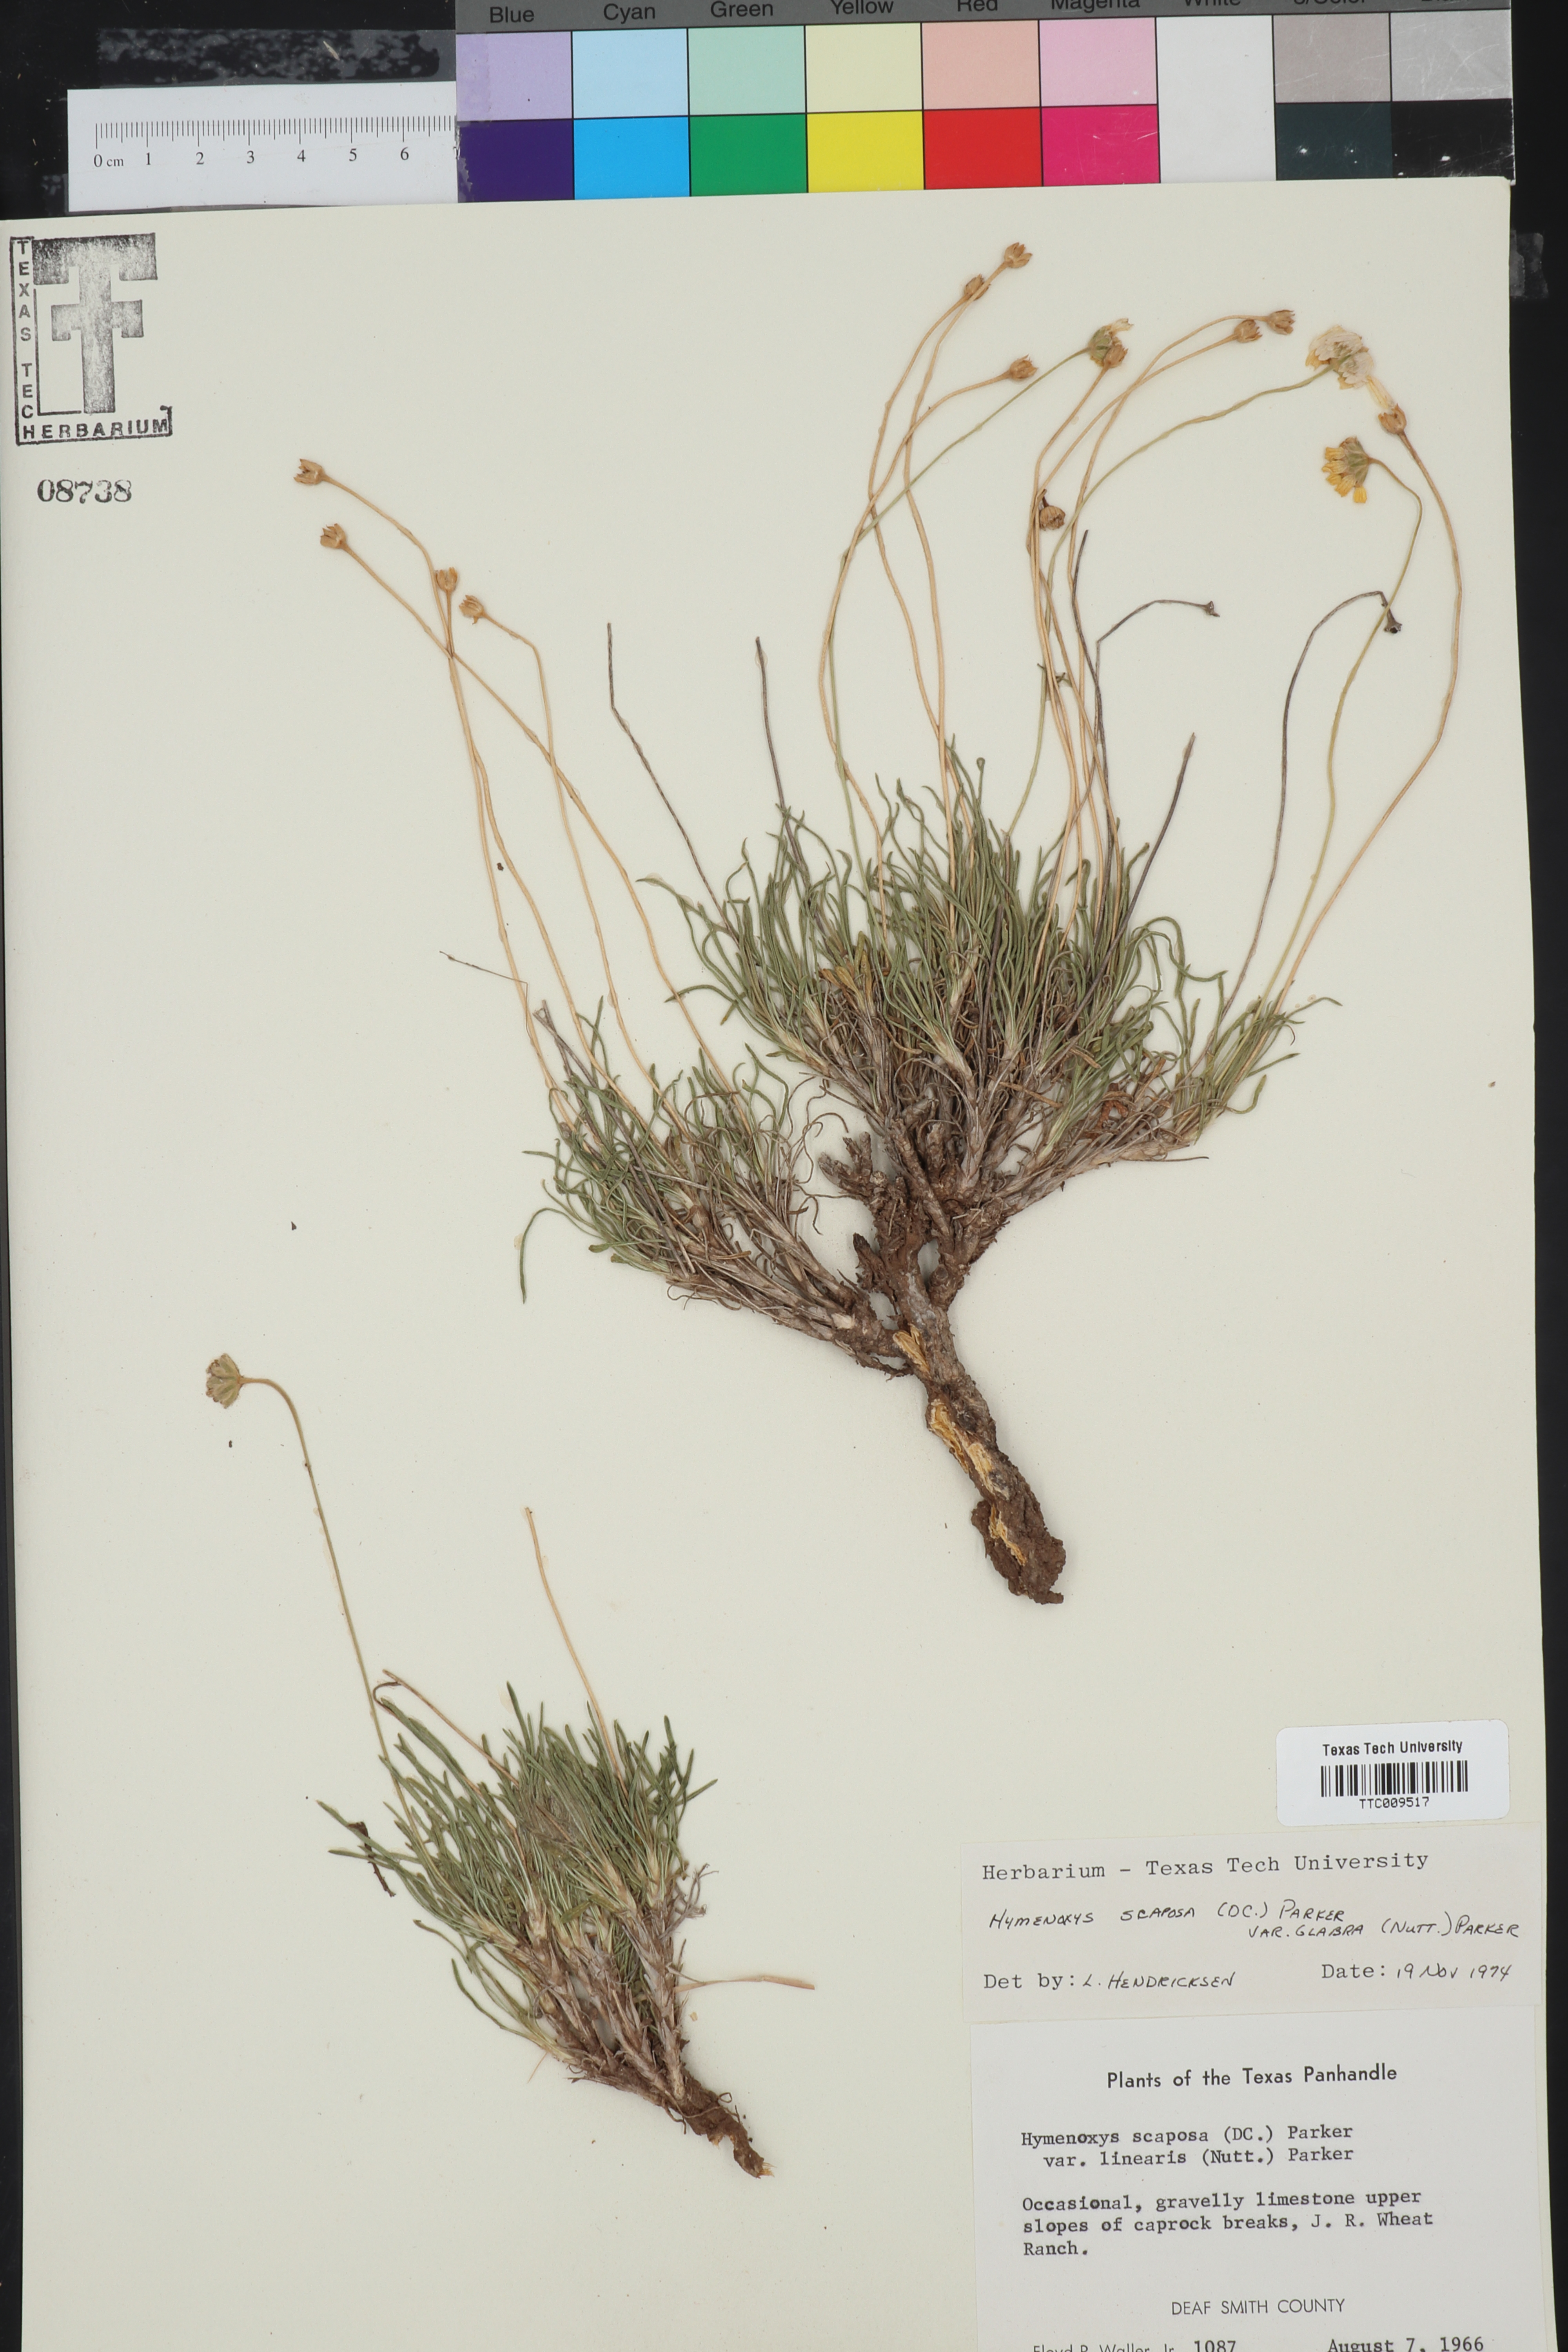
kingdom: Plantae
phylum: Tracheophyta
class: Magnoliopsida
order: Asterales
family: Asteraceae
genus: Tetraneuris
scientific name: Tetraneuris scaposa
